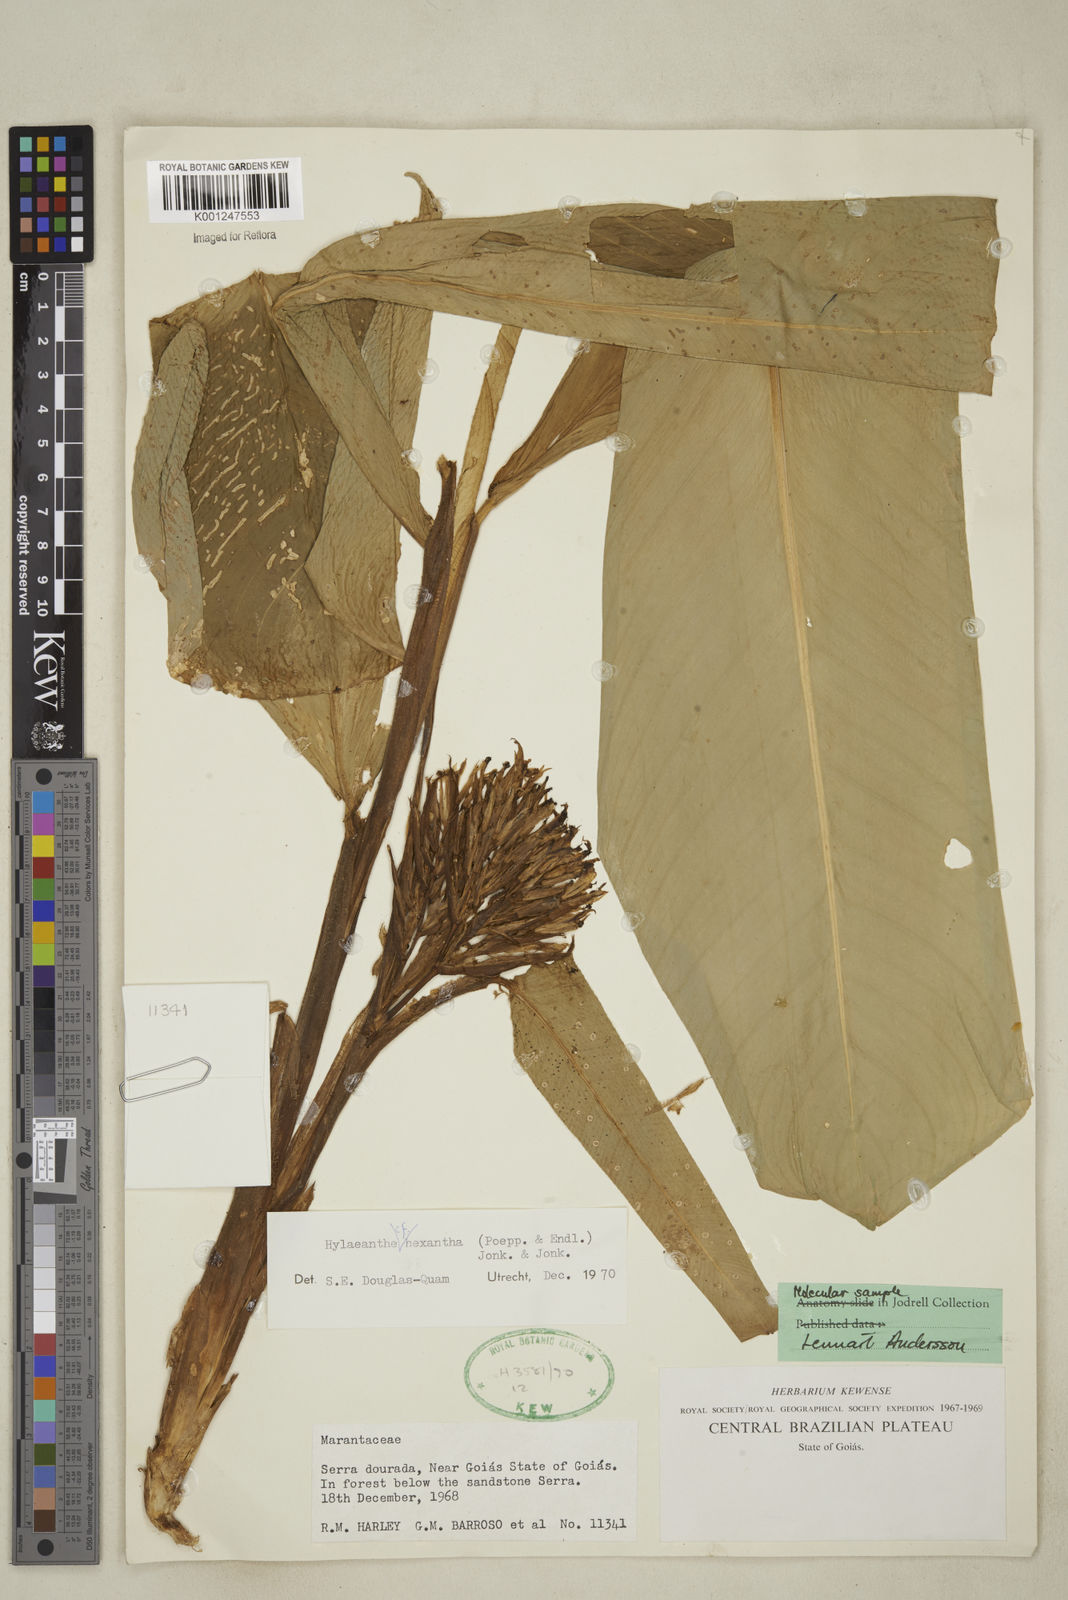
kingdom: Plantae
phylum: Tracheophyta
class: Liliopsida
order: Zingiberales
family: Marantaceae
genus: Hylaeanthe
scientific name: Hylaeanthe hexantha
